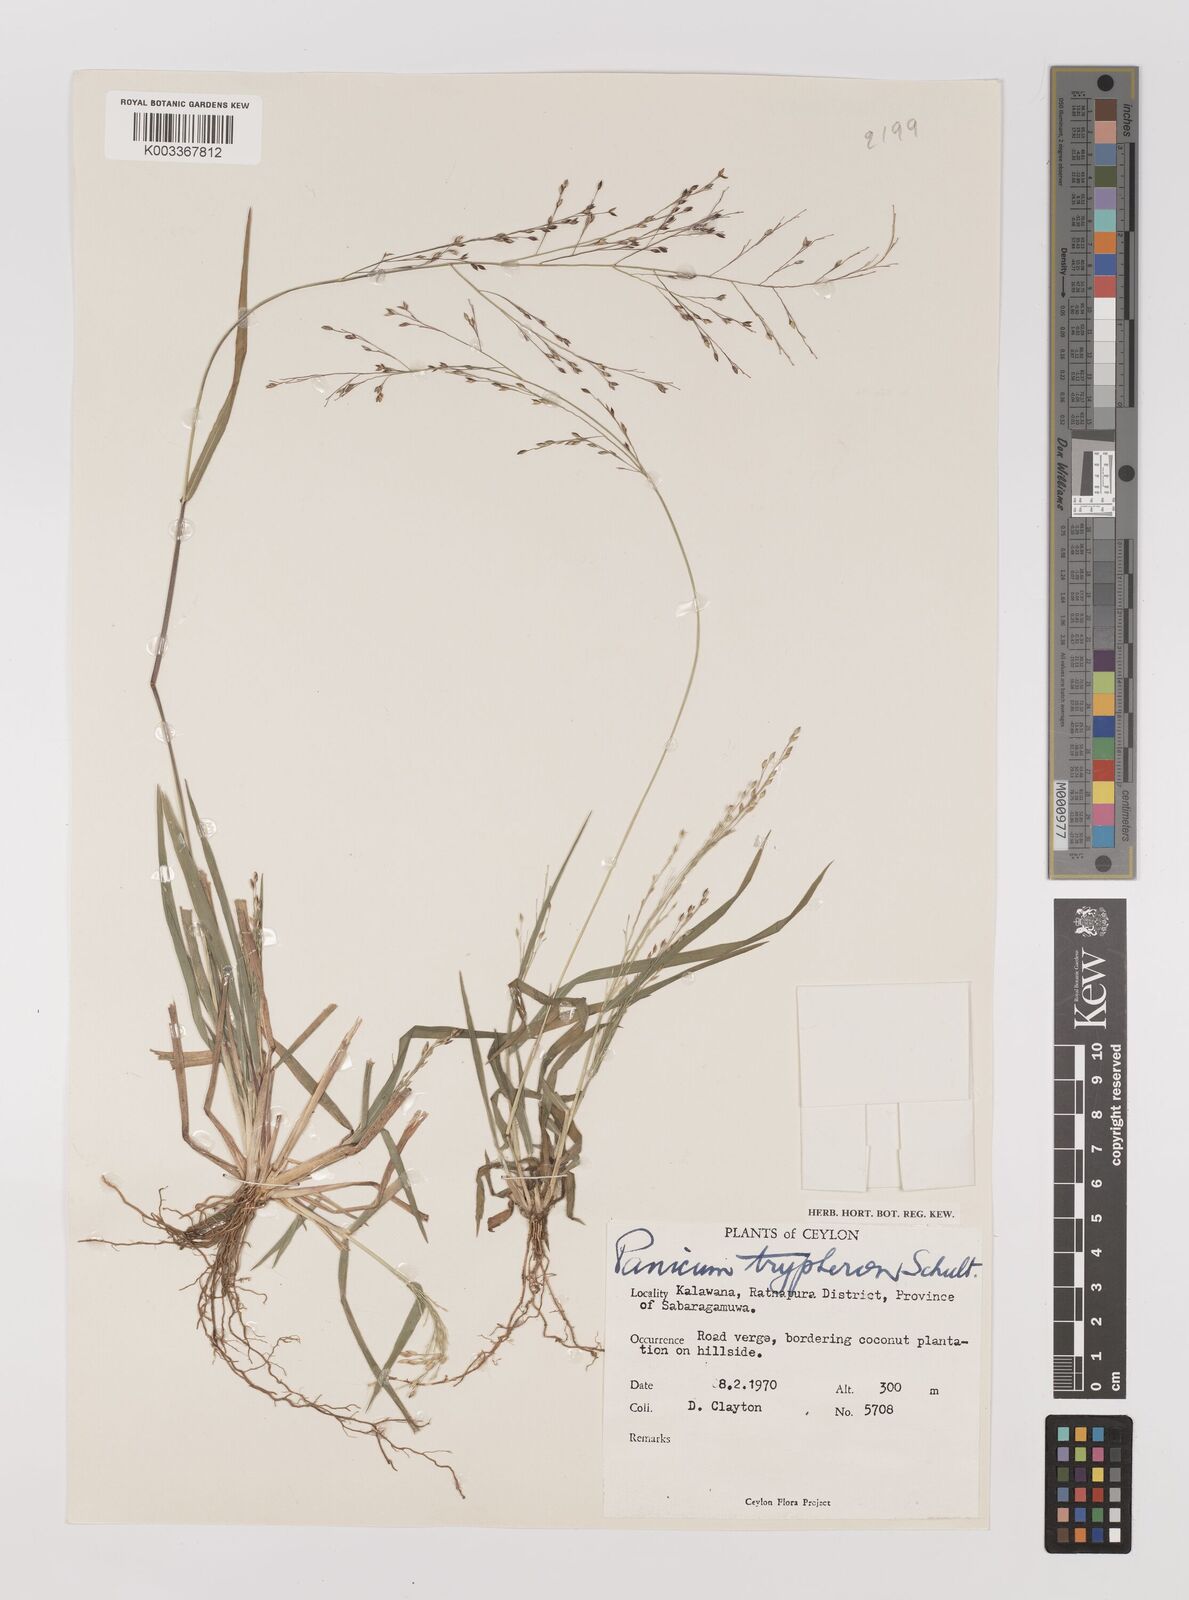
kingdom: Plantae
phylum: Tracheophyta
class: Liliopsida
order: Poales
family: Poaceae
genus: Panicum
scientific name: Panicum curviflorum
